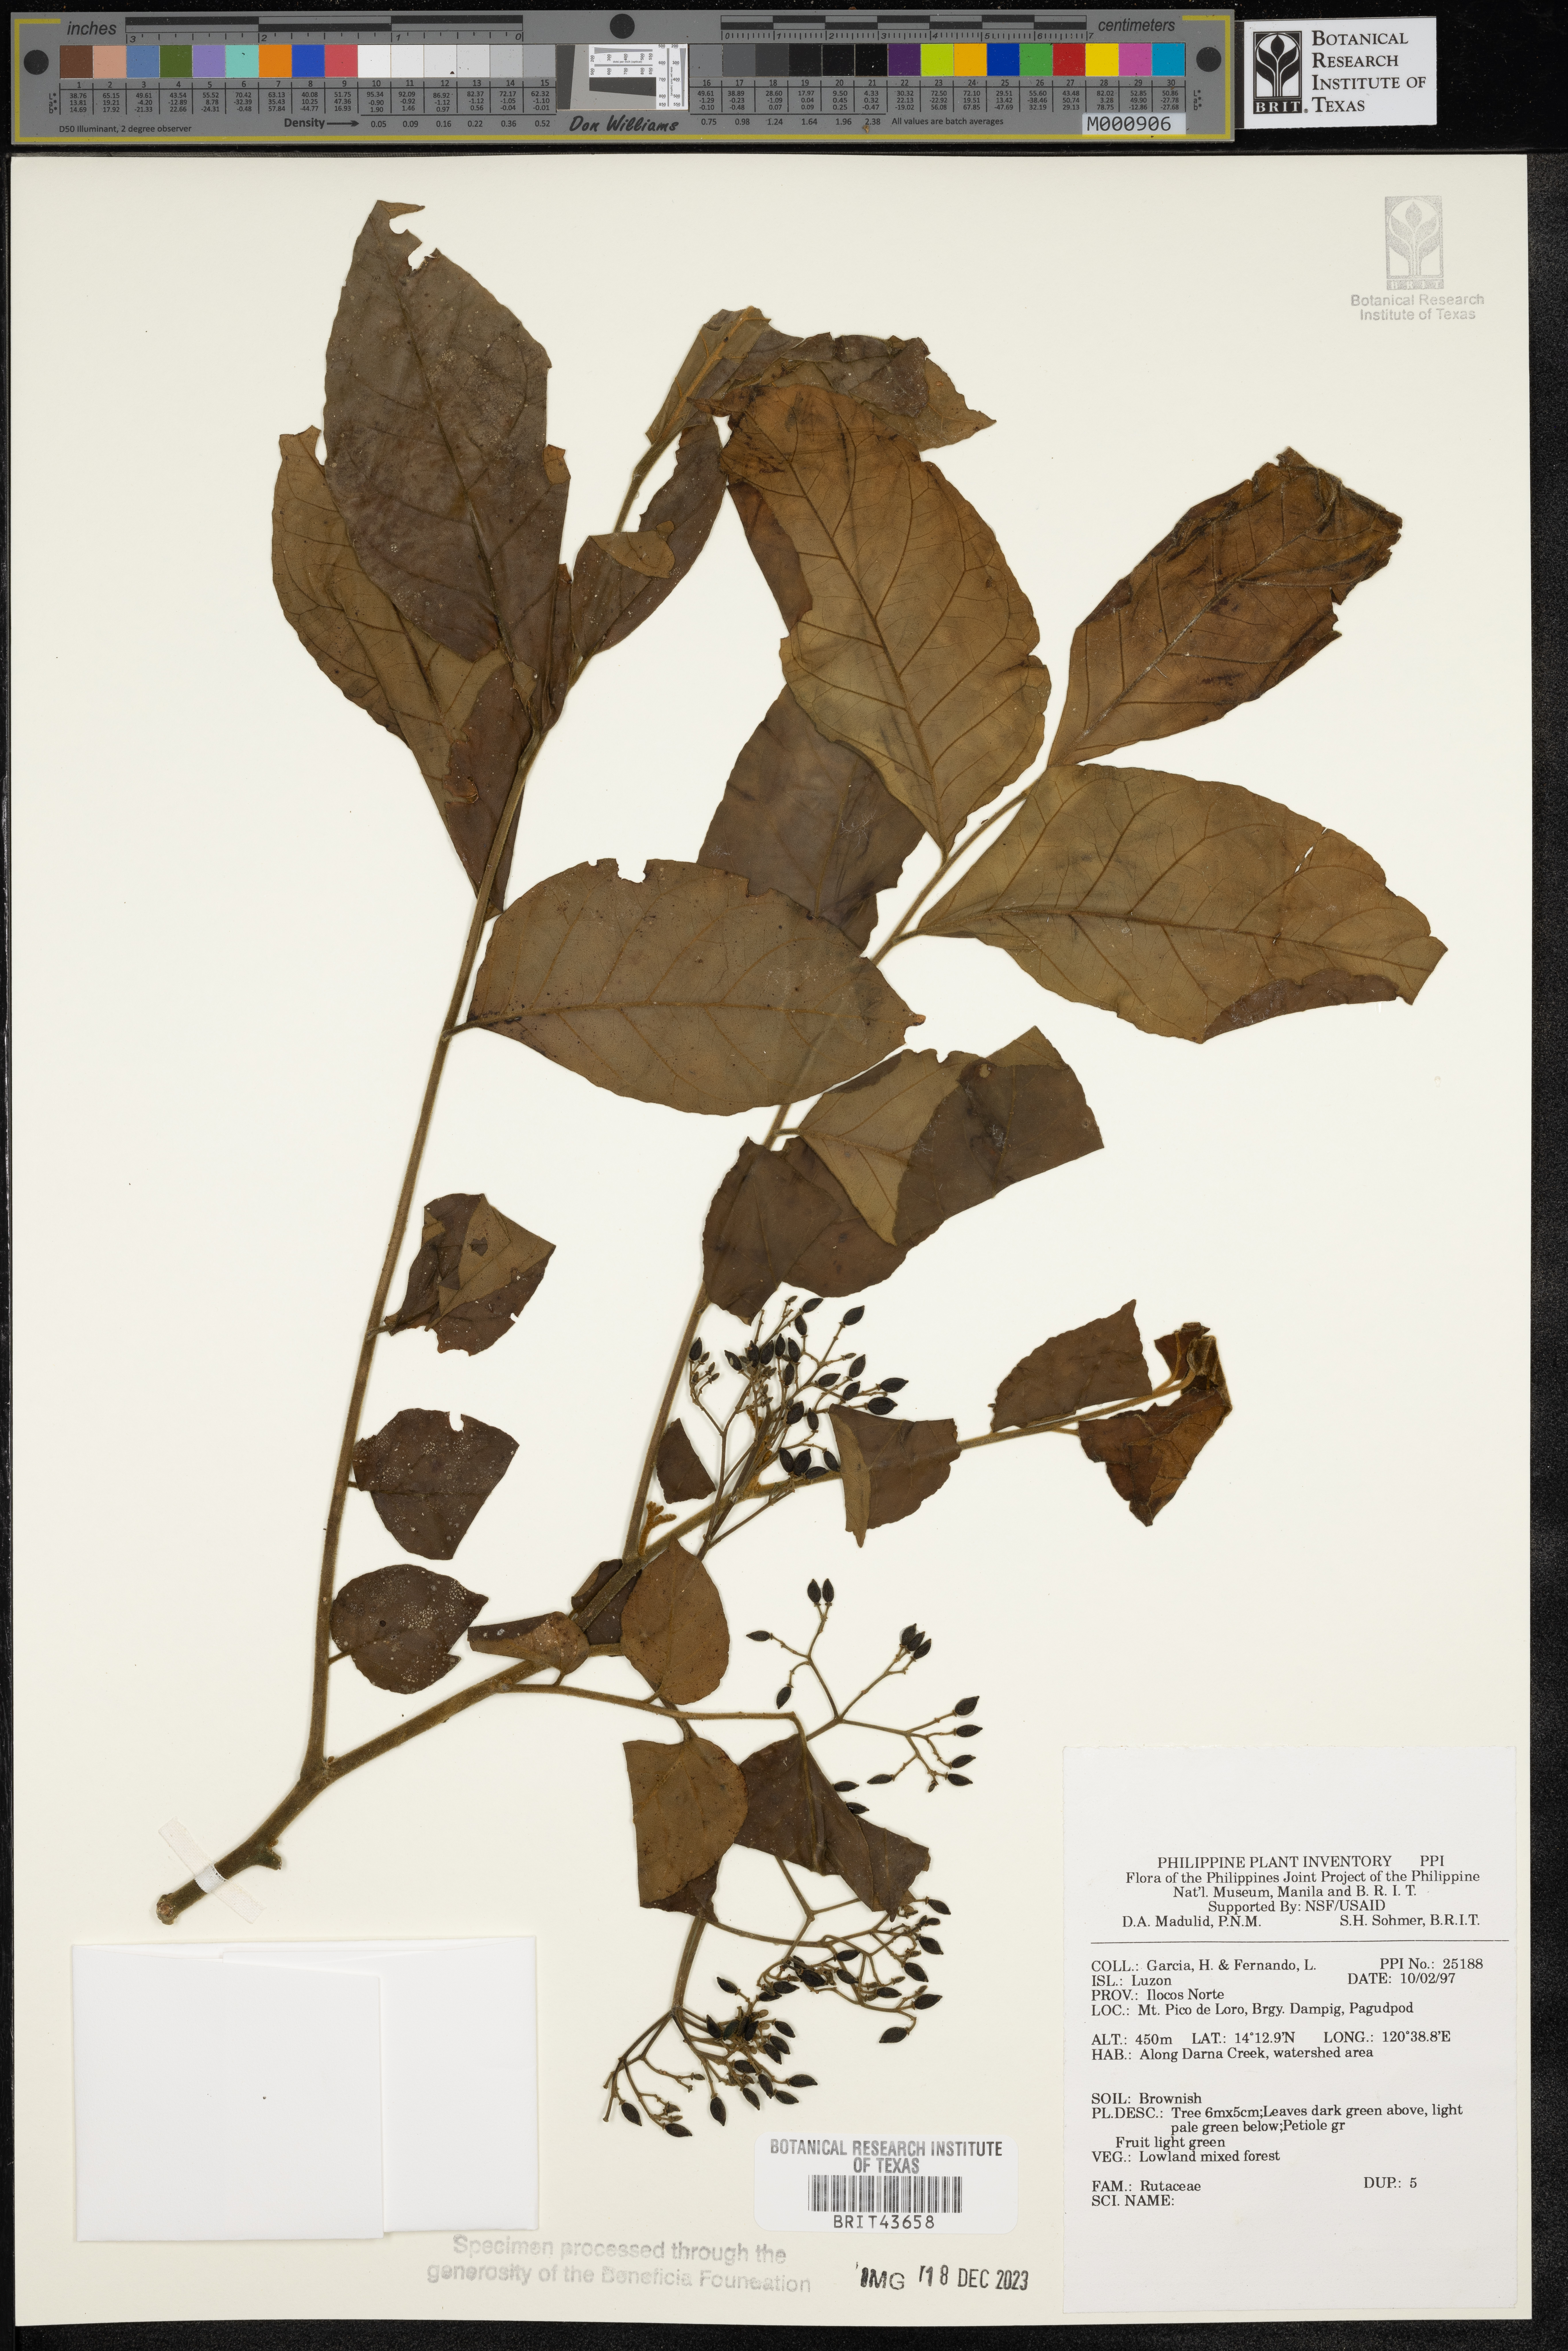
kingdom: Plantae
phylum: Tracheophyta
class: Magnoliopsida
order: Sapindales
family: Rutaceae
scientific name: Rutaceae
